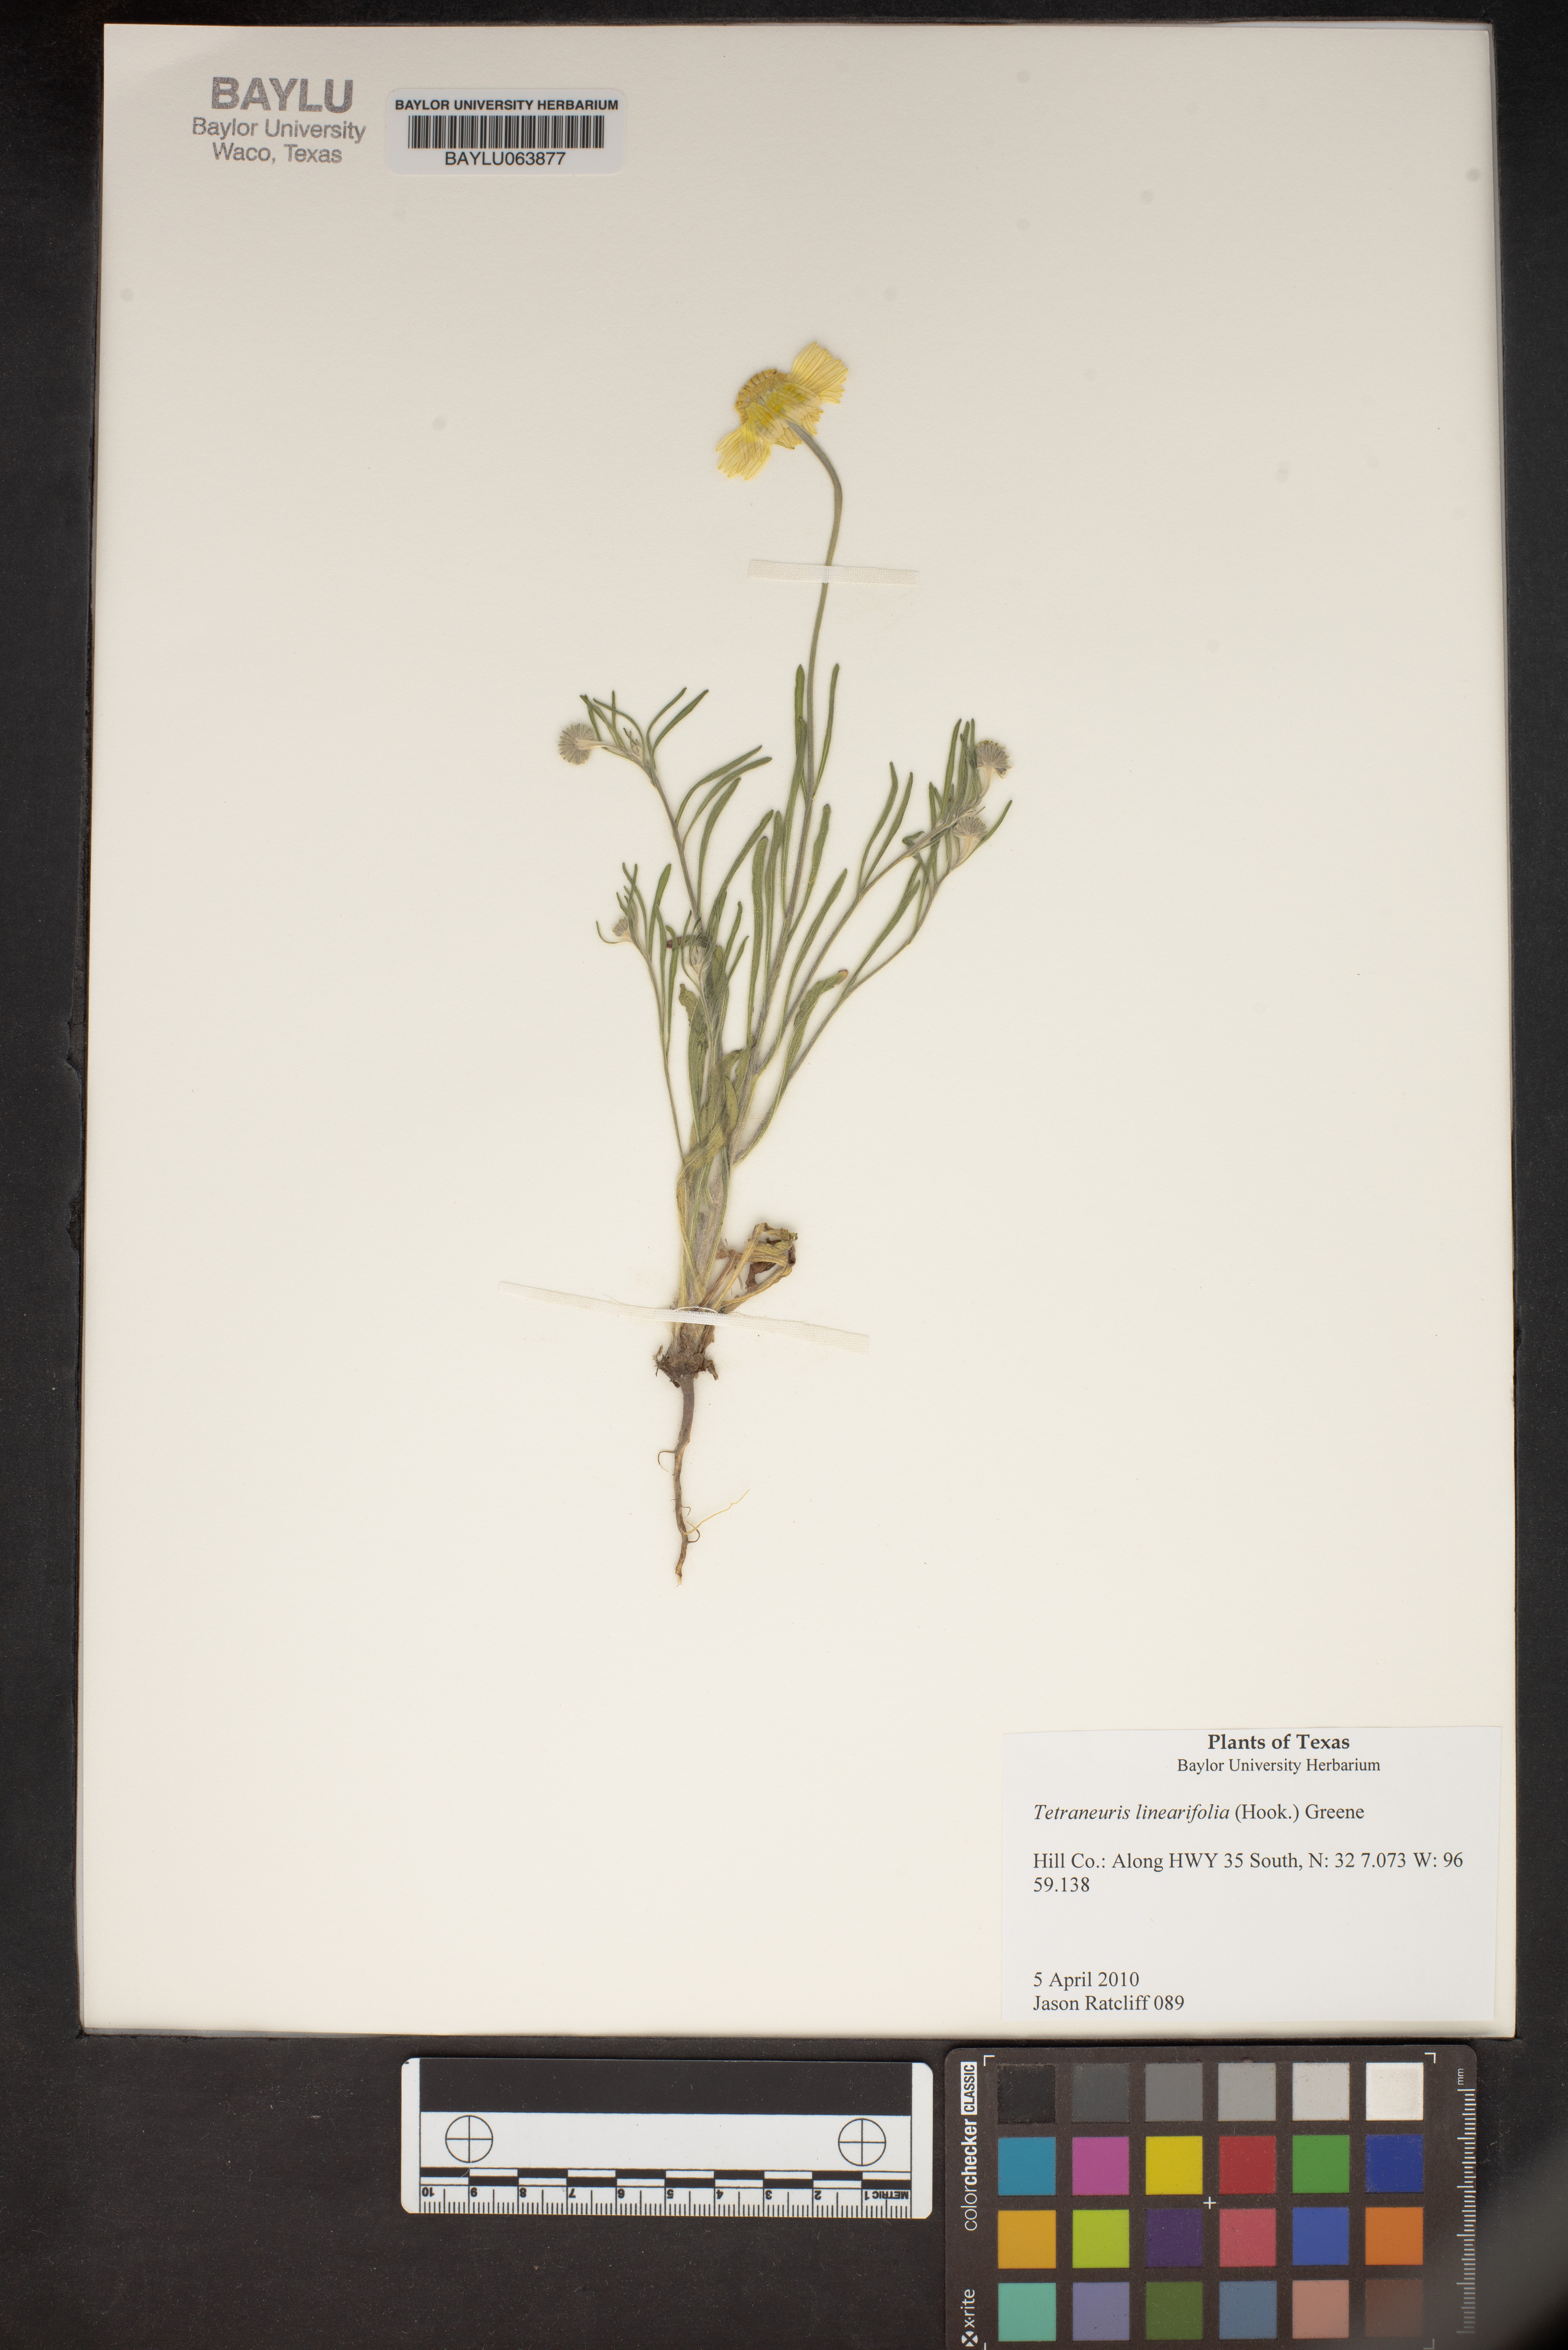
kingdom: Plantae
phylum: Tracheophyta
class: Magnoliopsida
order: Asterales
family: Asteraceae
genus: Tetraneuris
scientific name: Tetraneuris linearifolia
